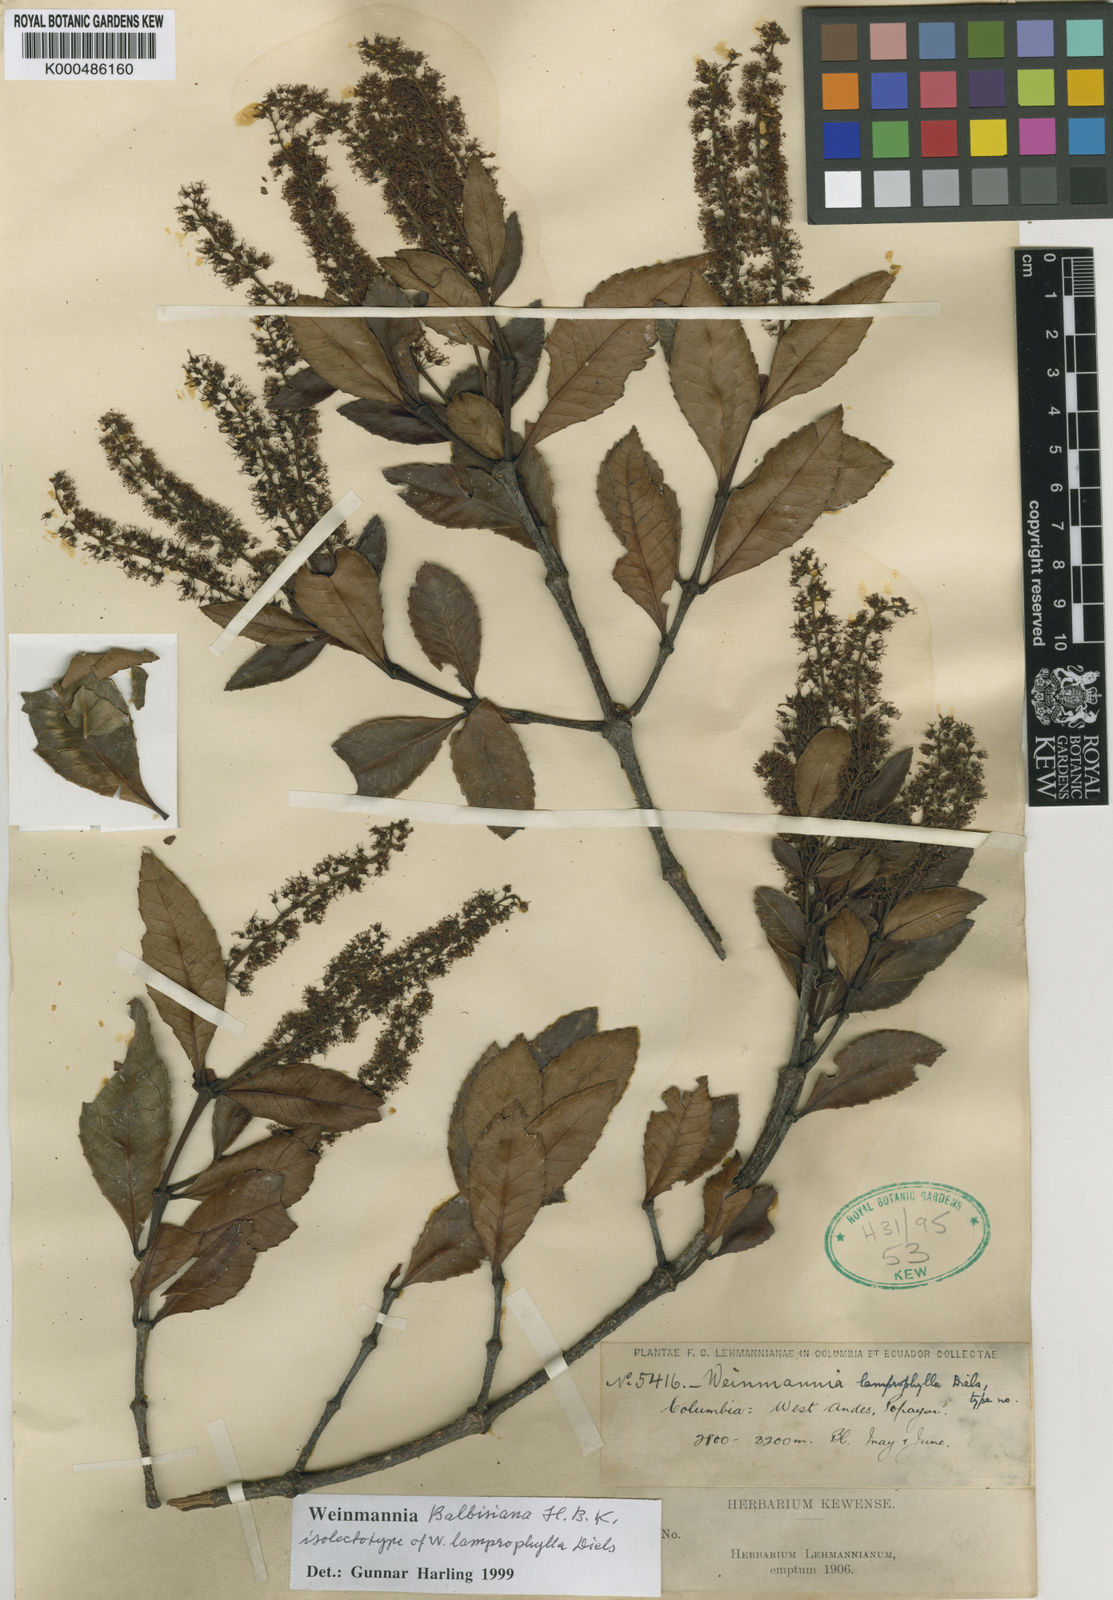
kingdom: Plantae
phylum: Tracheophyta
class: Magnoliopsida
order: Oxalidales
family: Cunoniaceae
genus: Weinmannia
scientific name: Weinmannia balbisana
